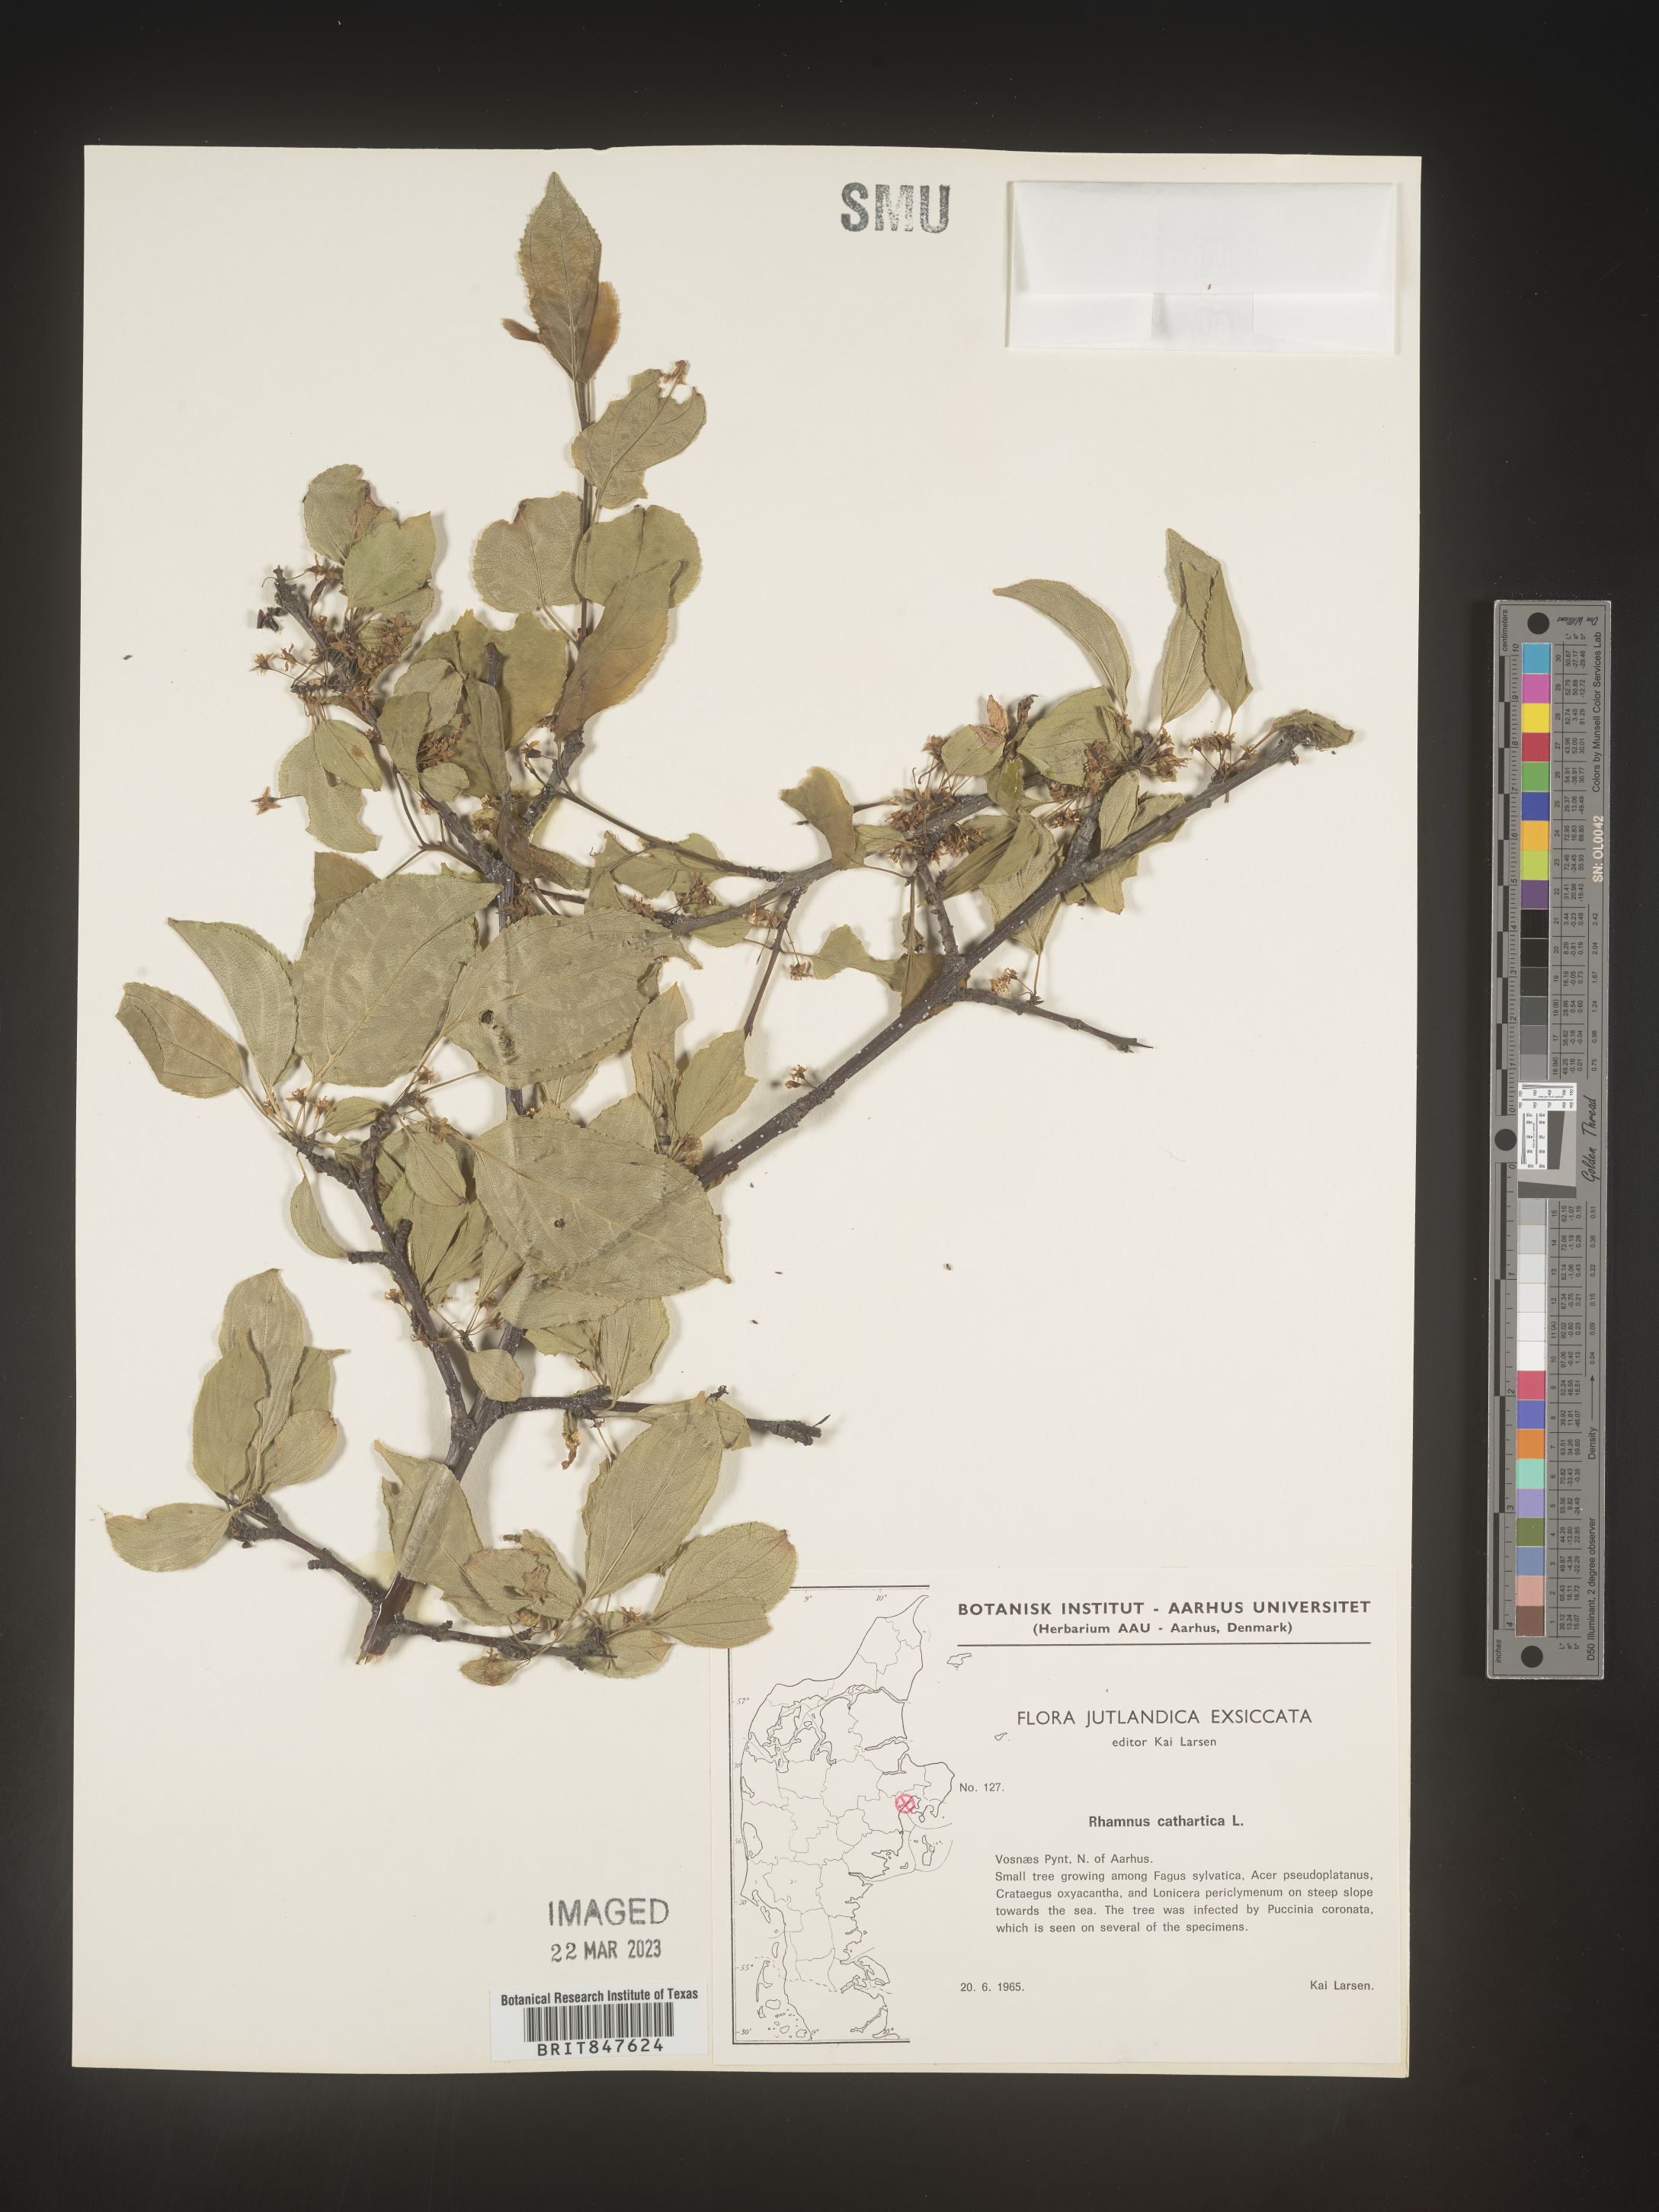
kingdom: Plantae
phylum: Tracheophyta
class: Magnoliopsida
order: Rosales
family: Rhamnaceae
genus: Rhamnus
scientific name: Rhamnus cathartica
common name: Common buckthorn
